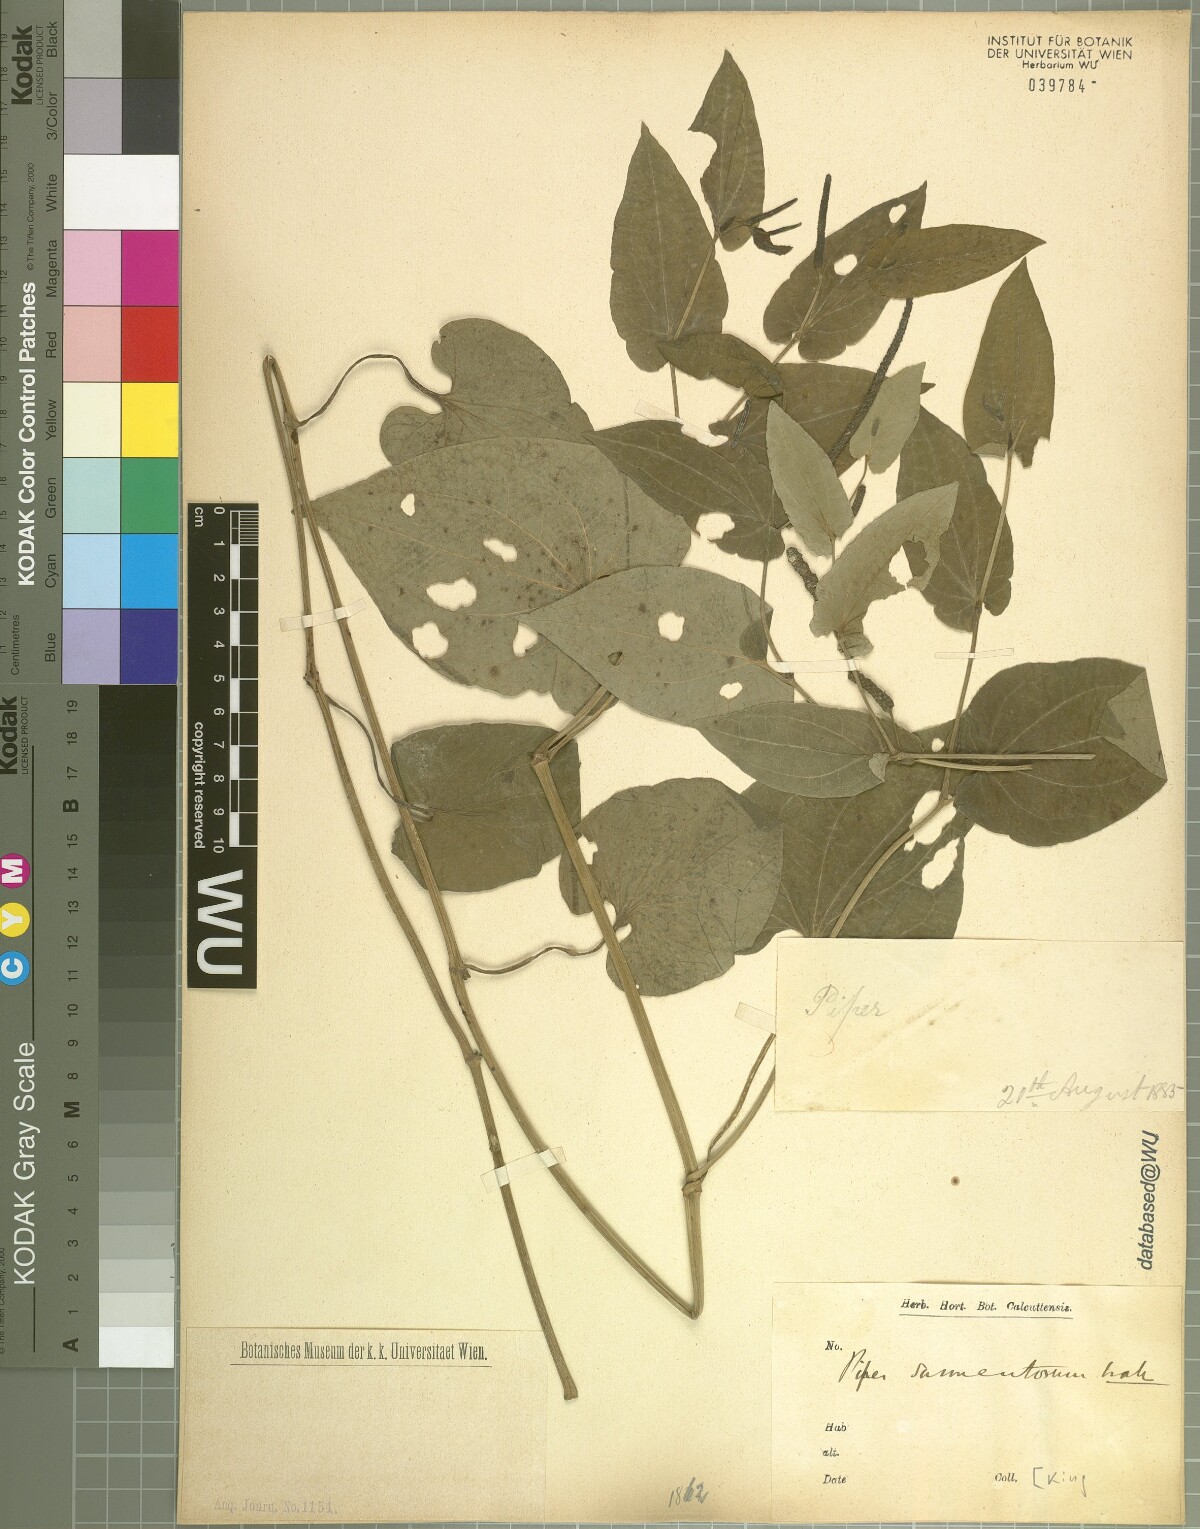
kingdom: Plantae
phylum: Tracheophyta
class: Magnoliopsida
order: Piperales
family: Piperaceae
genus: Piper
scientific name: Piper longum
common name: Long pepper
